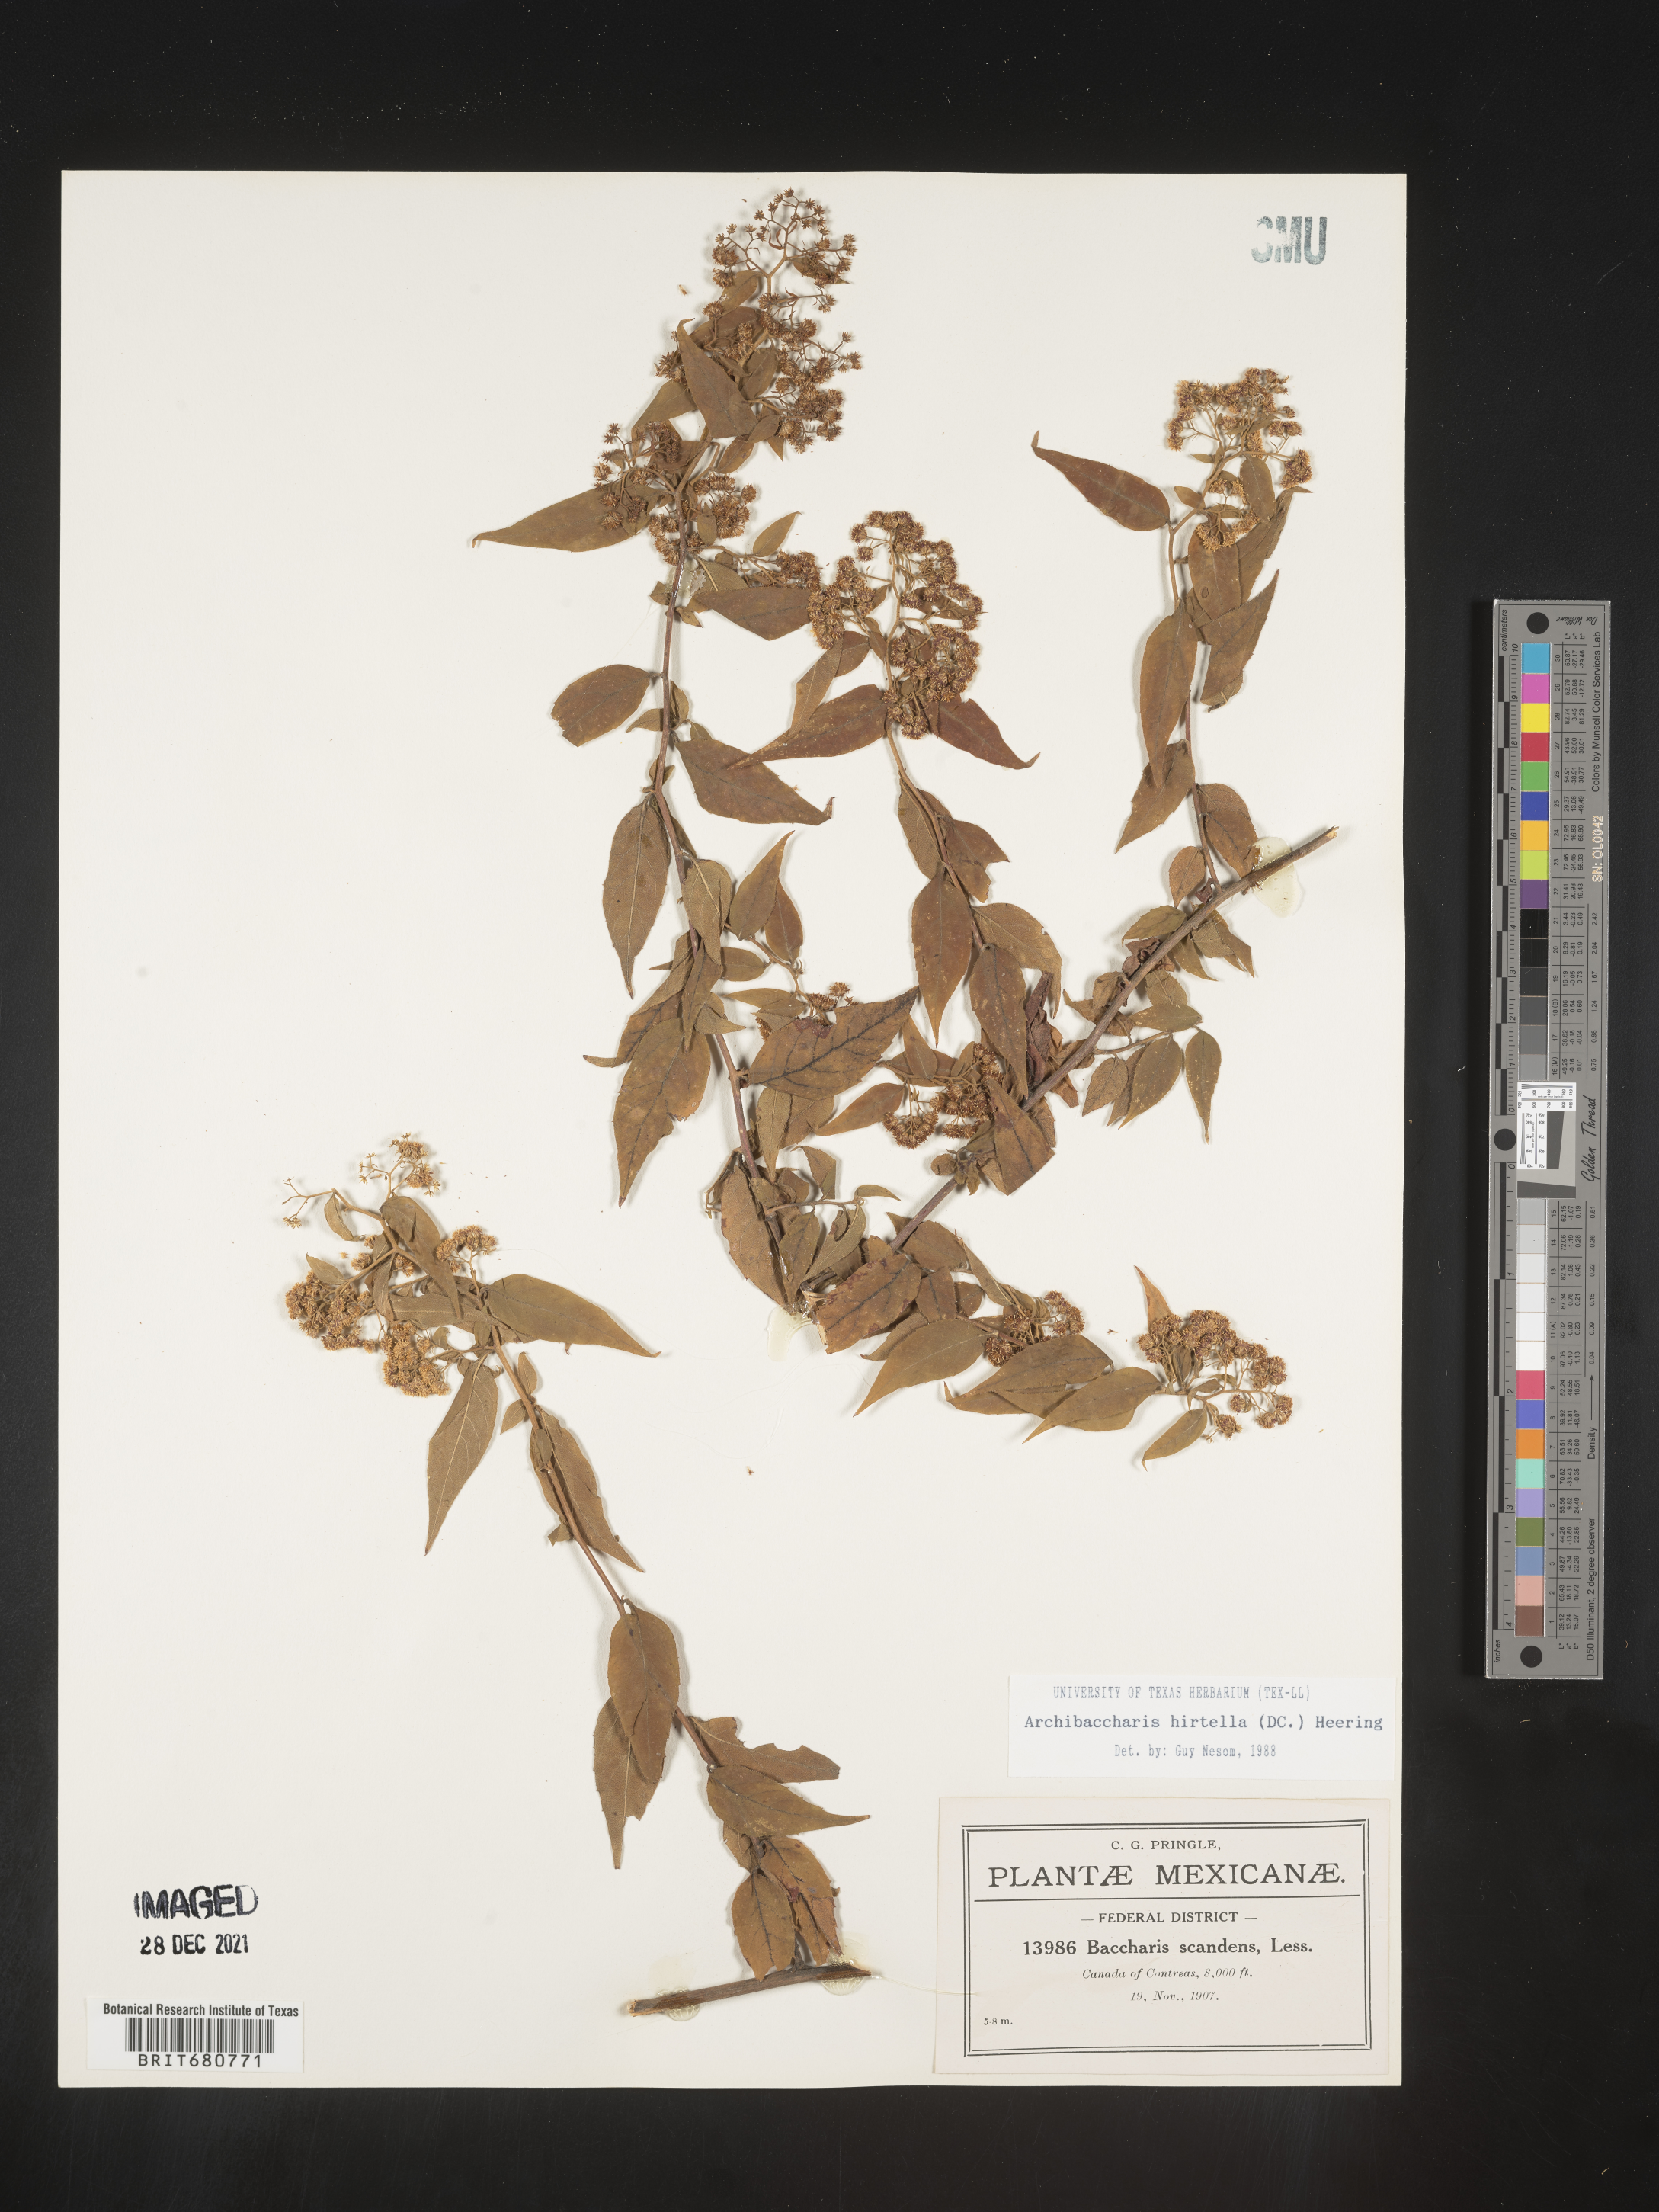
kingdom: Plantae
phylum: Tracheophyta
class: Magnoliopsida
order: Asterales
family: Asteraceae
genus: Archibaccharis
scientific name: Archibaccharis
